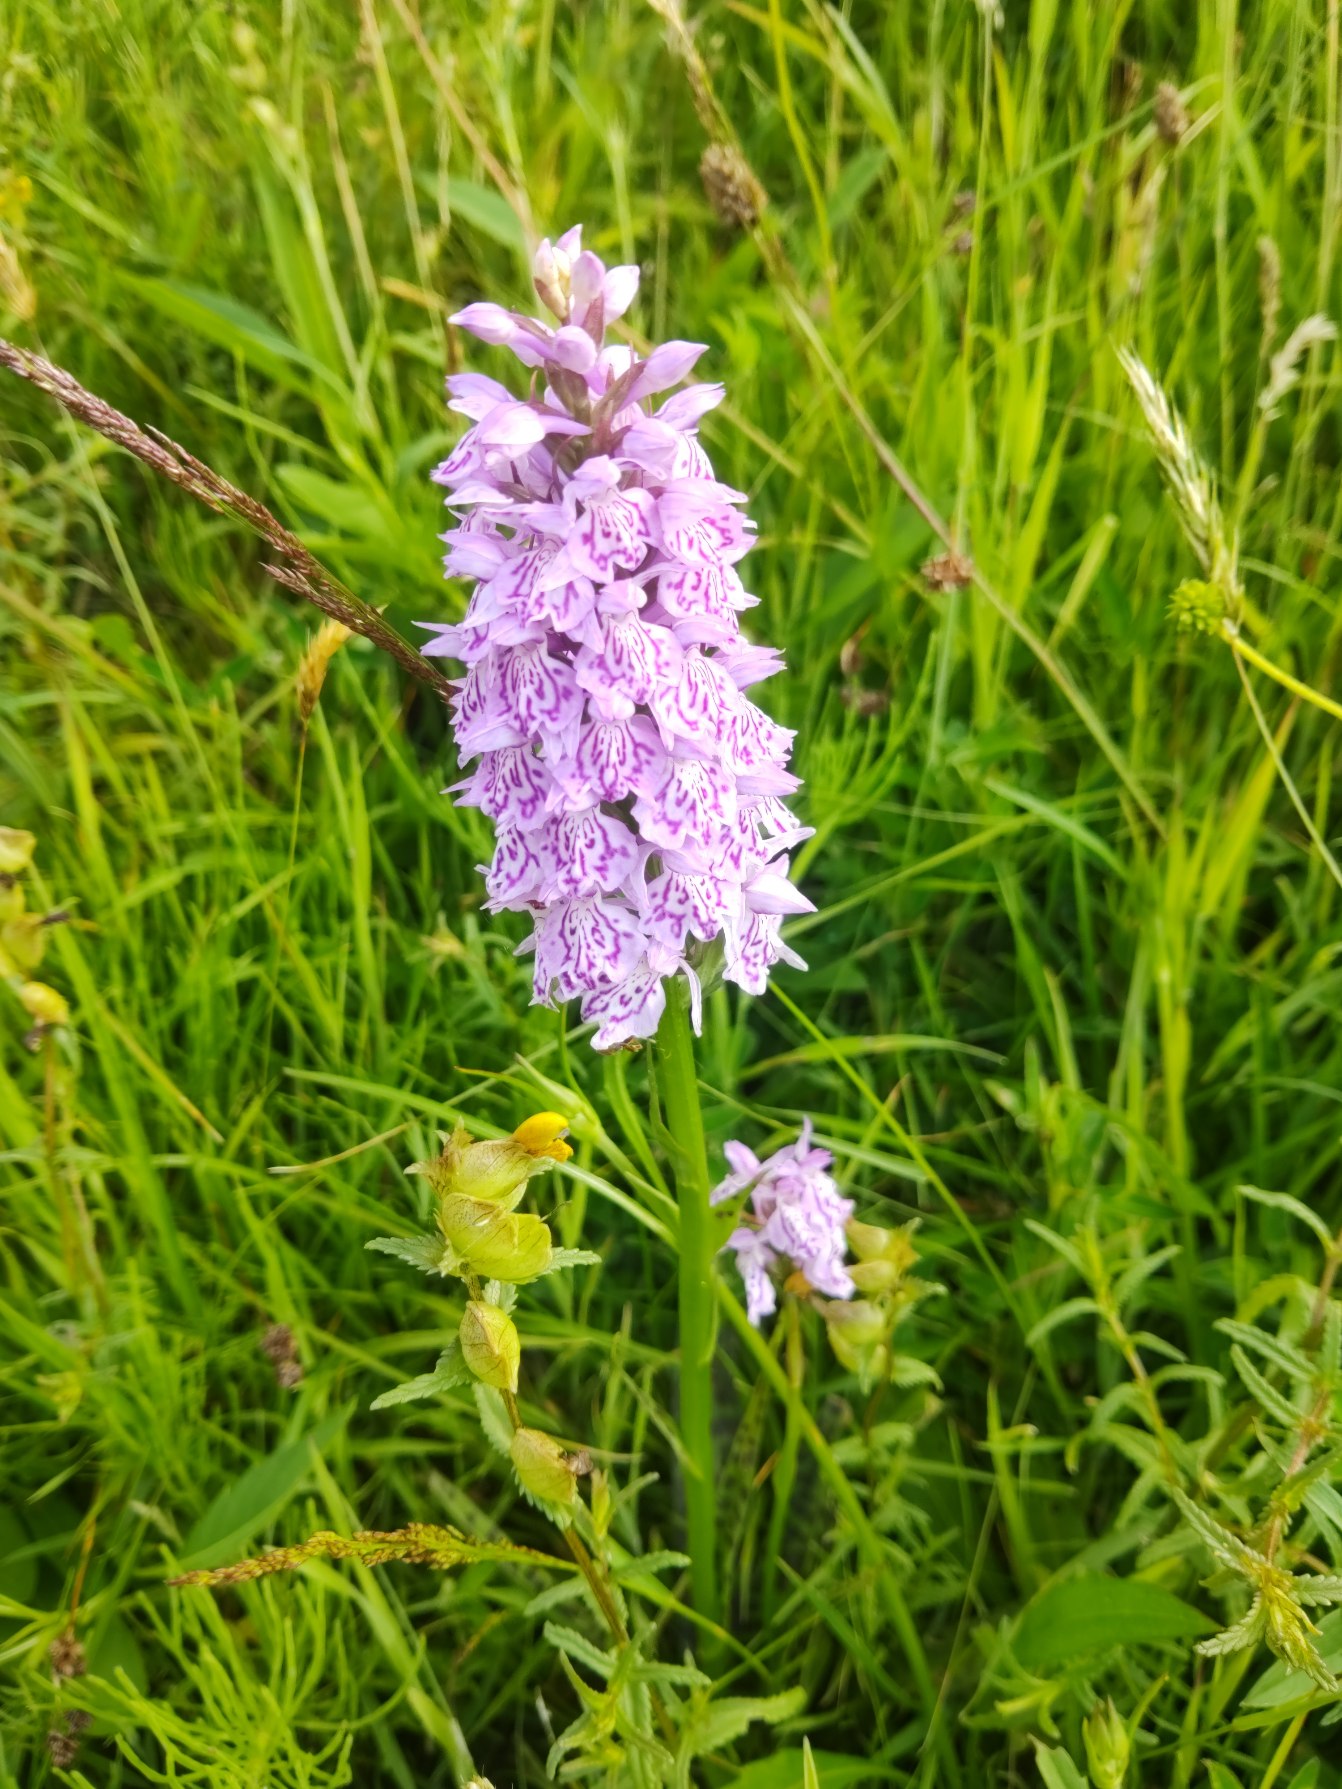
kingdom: Plantae
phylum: Tracheophyta
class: Liliopsida
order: Asparagales
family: Orchidaceae
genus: Dactylorhiza
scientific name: Dactylorhiza maculata
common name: Plettet gøgeurt
